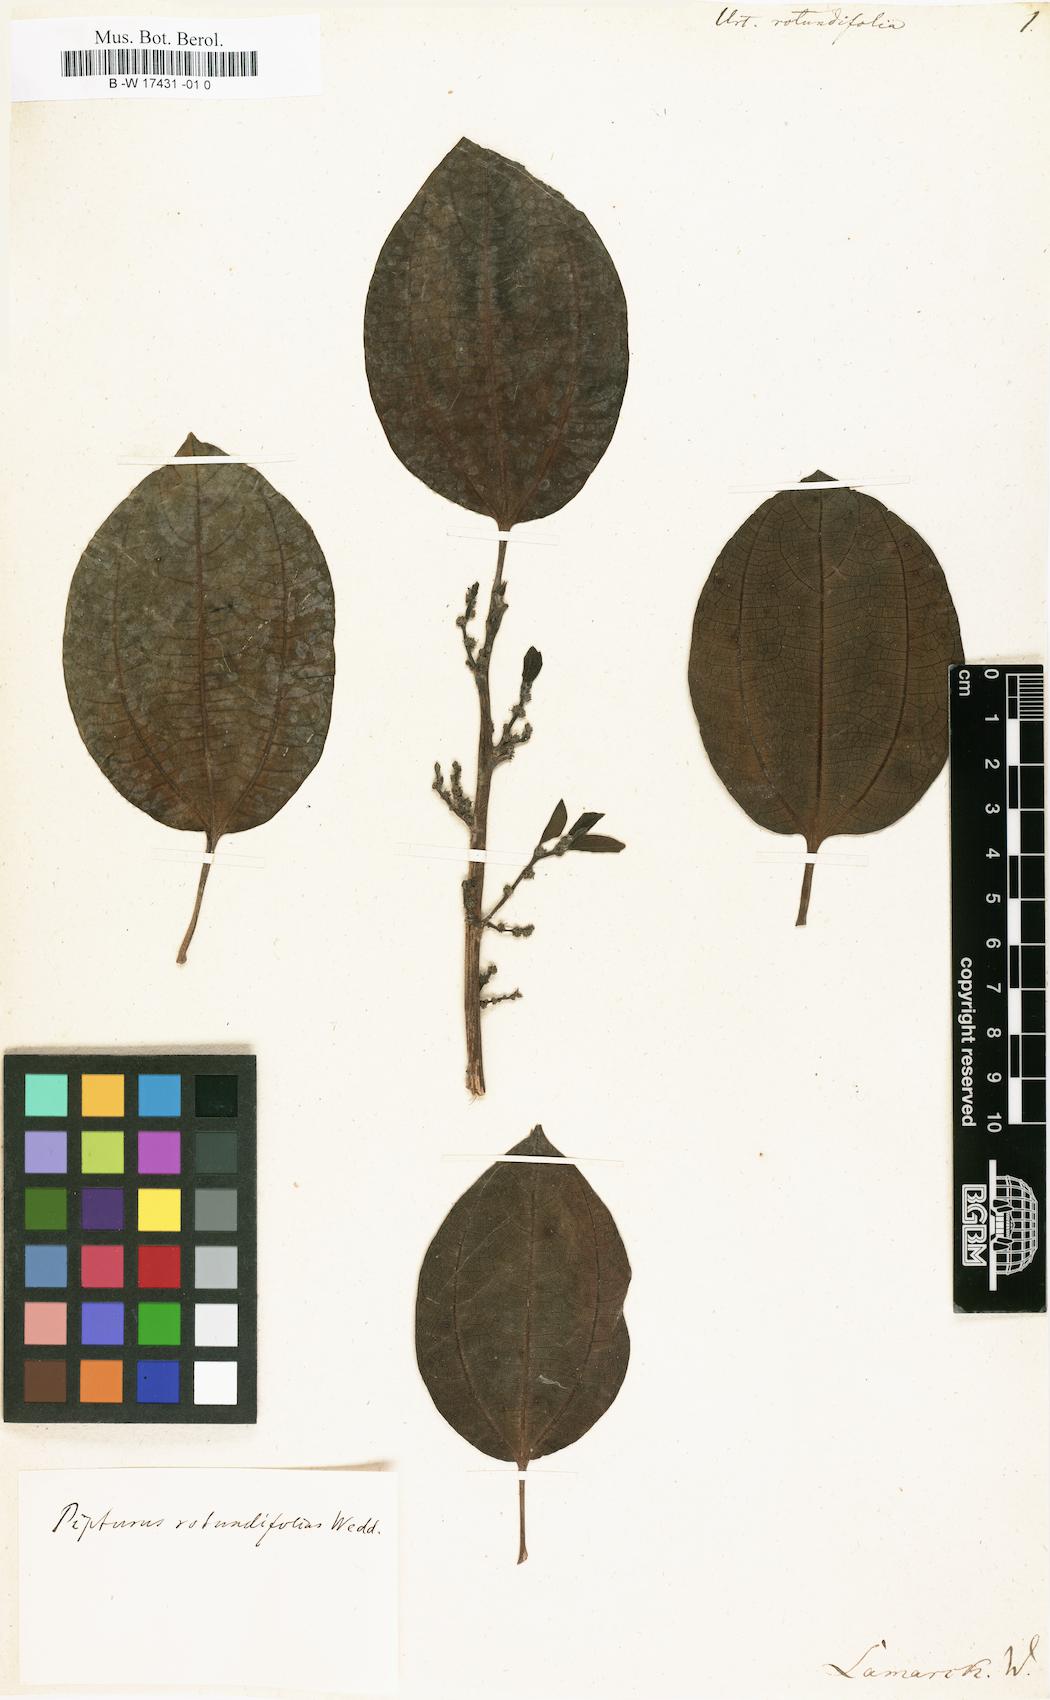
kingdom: Plantae
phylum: Tracheophyta
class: Magnoliopsida
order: Rosales
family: Urticaceae
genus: Scepocarpus
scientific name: Scepocarpus acuminatus
